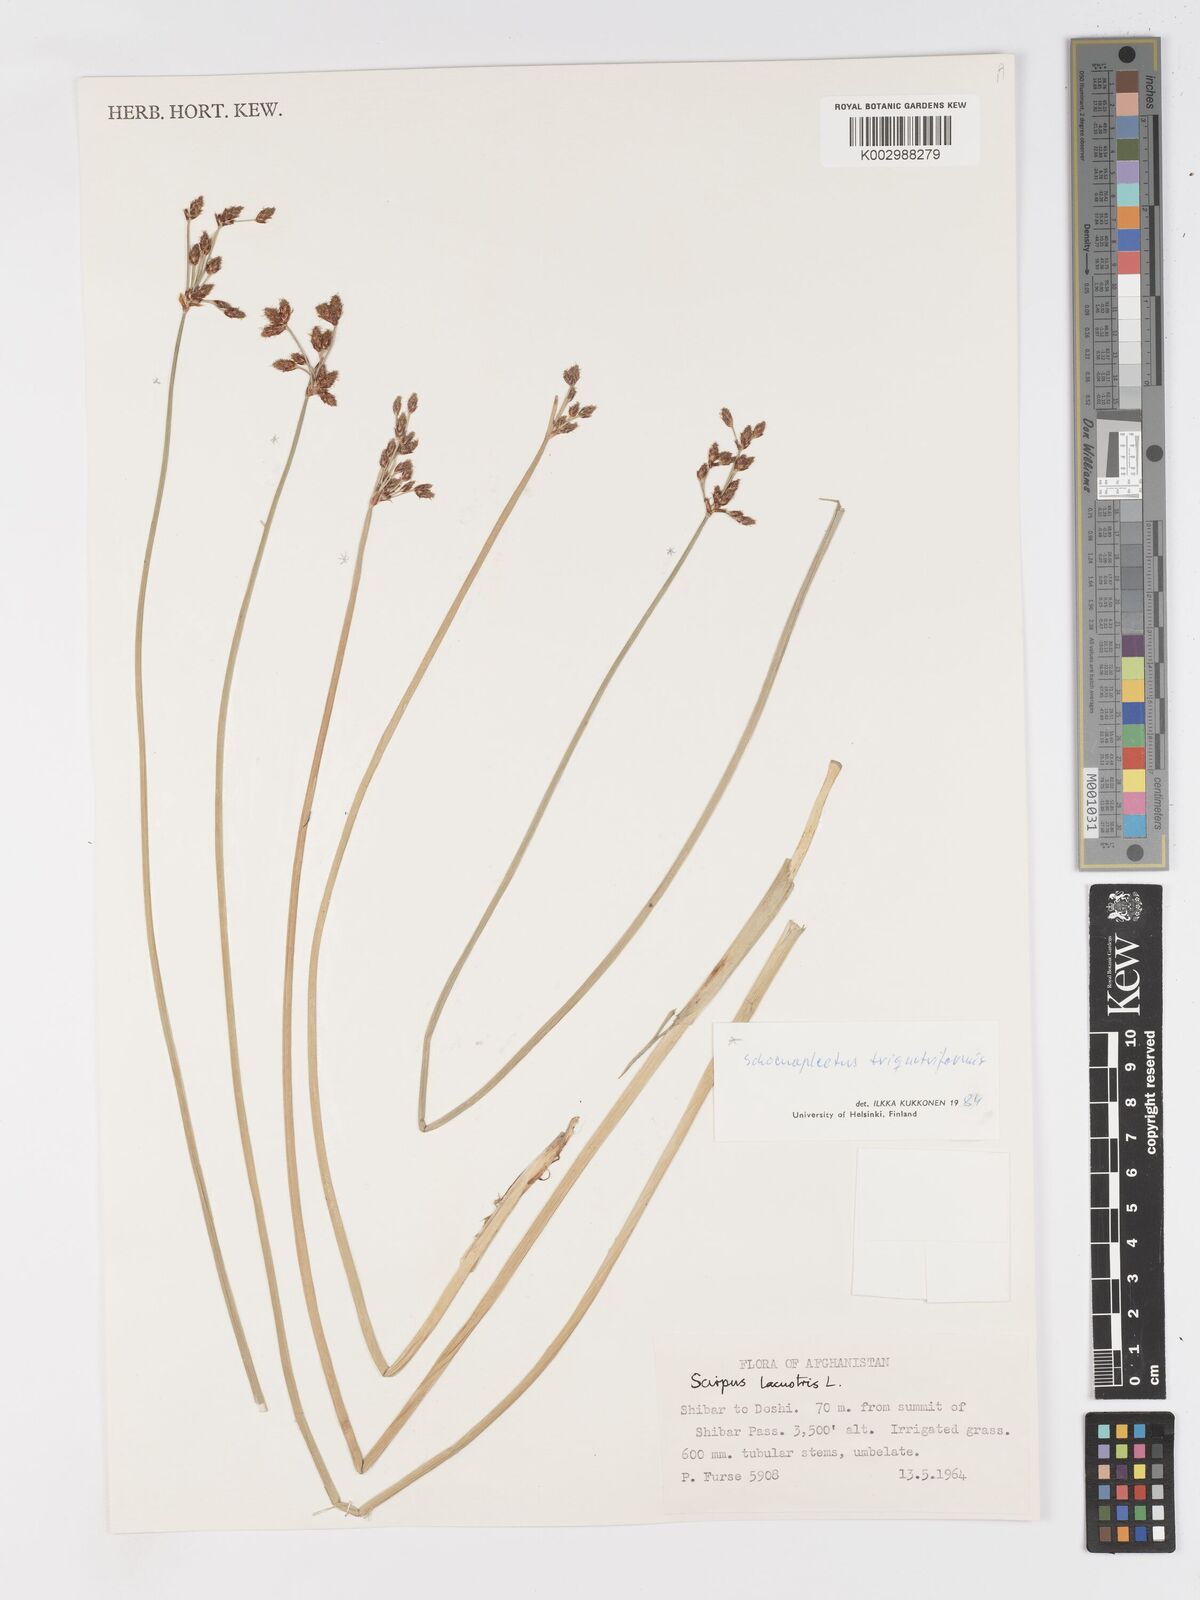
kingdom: Plantae
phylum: Tracheophyta
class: Liliopsida
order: Poales
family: Cyperaceae
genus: Schoenoplectus
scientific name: Schoenoplectus
